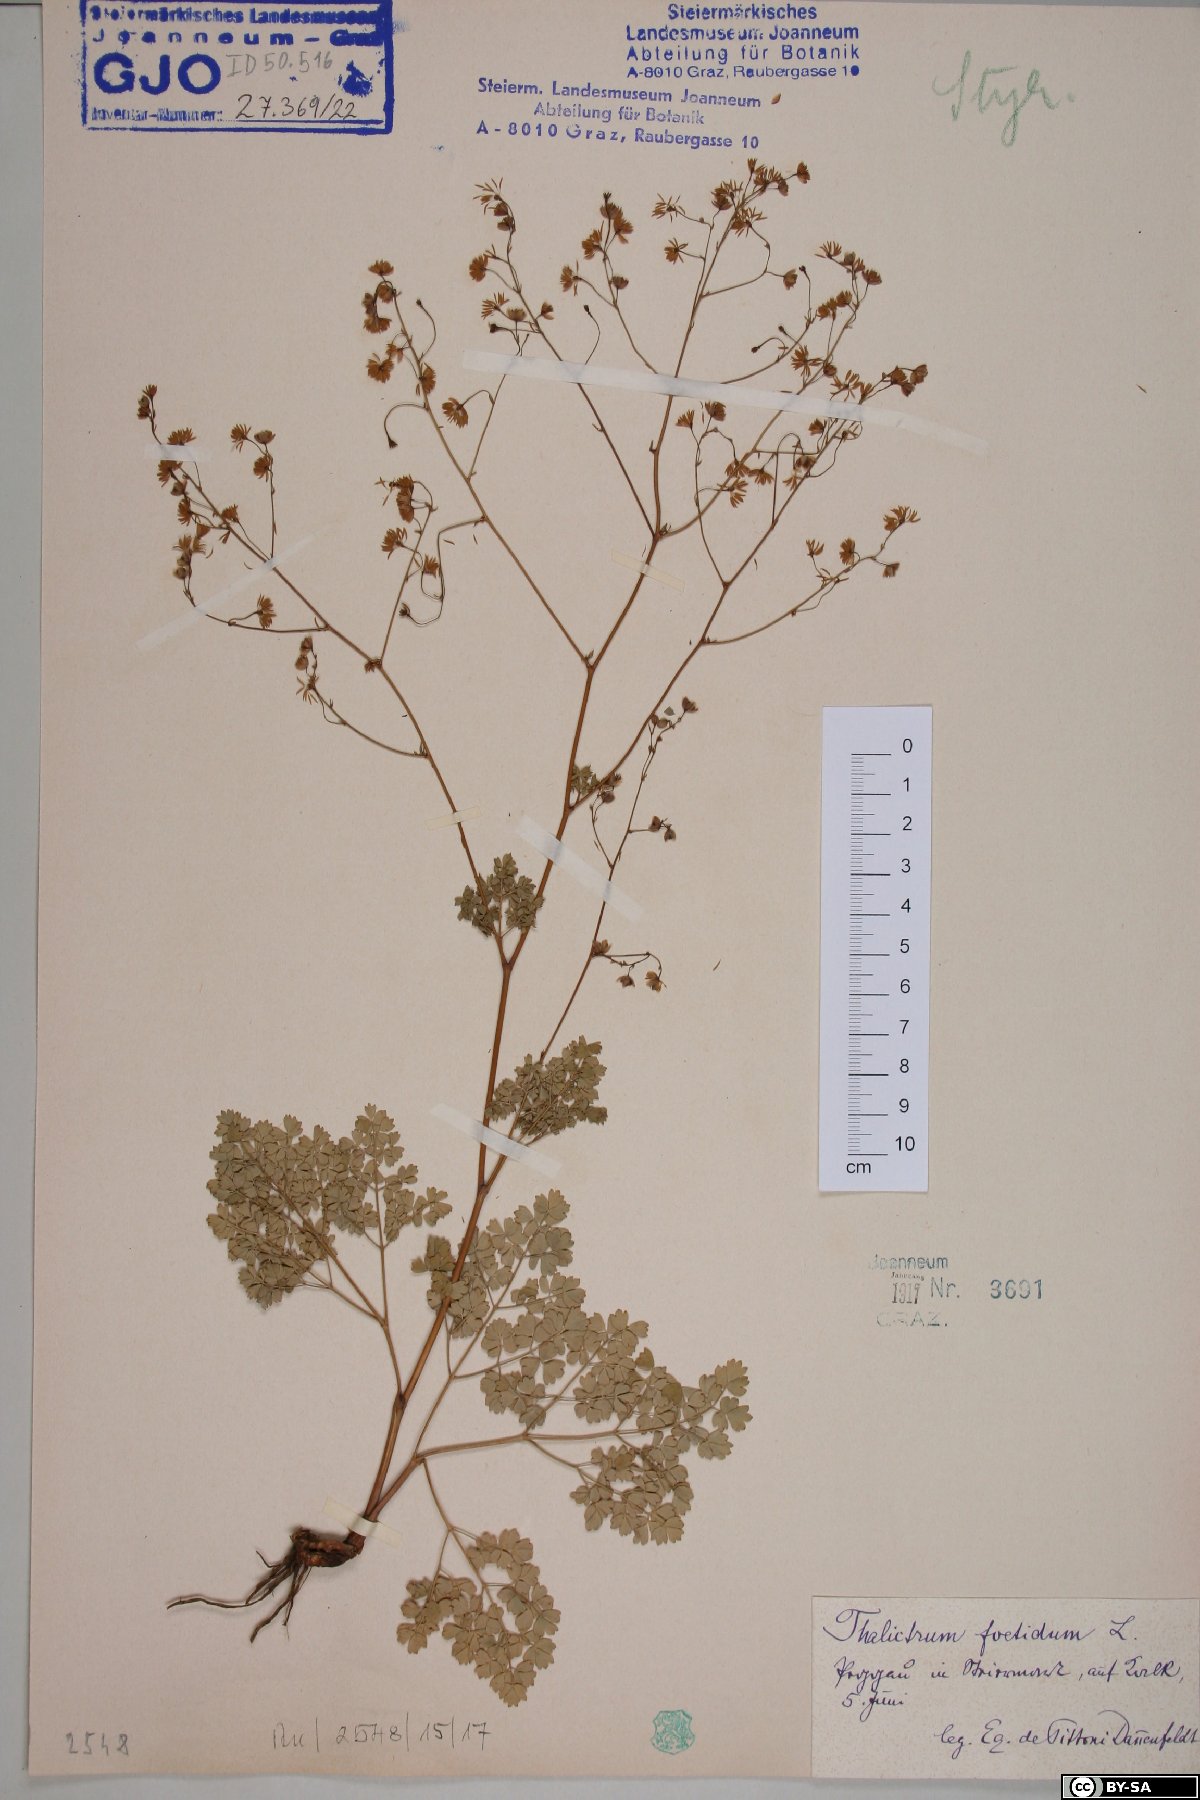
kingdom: Plantae
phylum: Tracheophyta
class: Magnoliopsida
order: Ranunculales
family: Ranunculaceae
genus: Thalictrum
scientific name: Thalictrum minus
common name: Lesser meadow-rue
